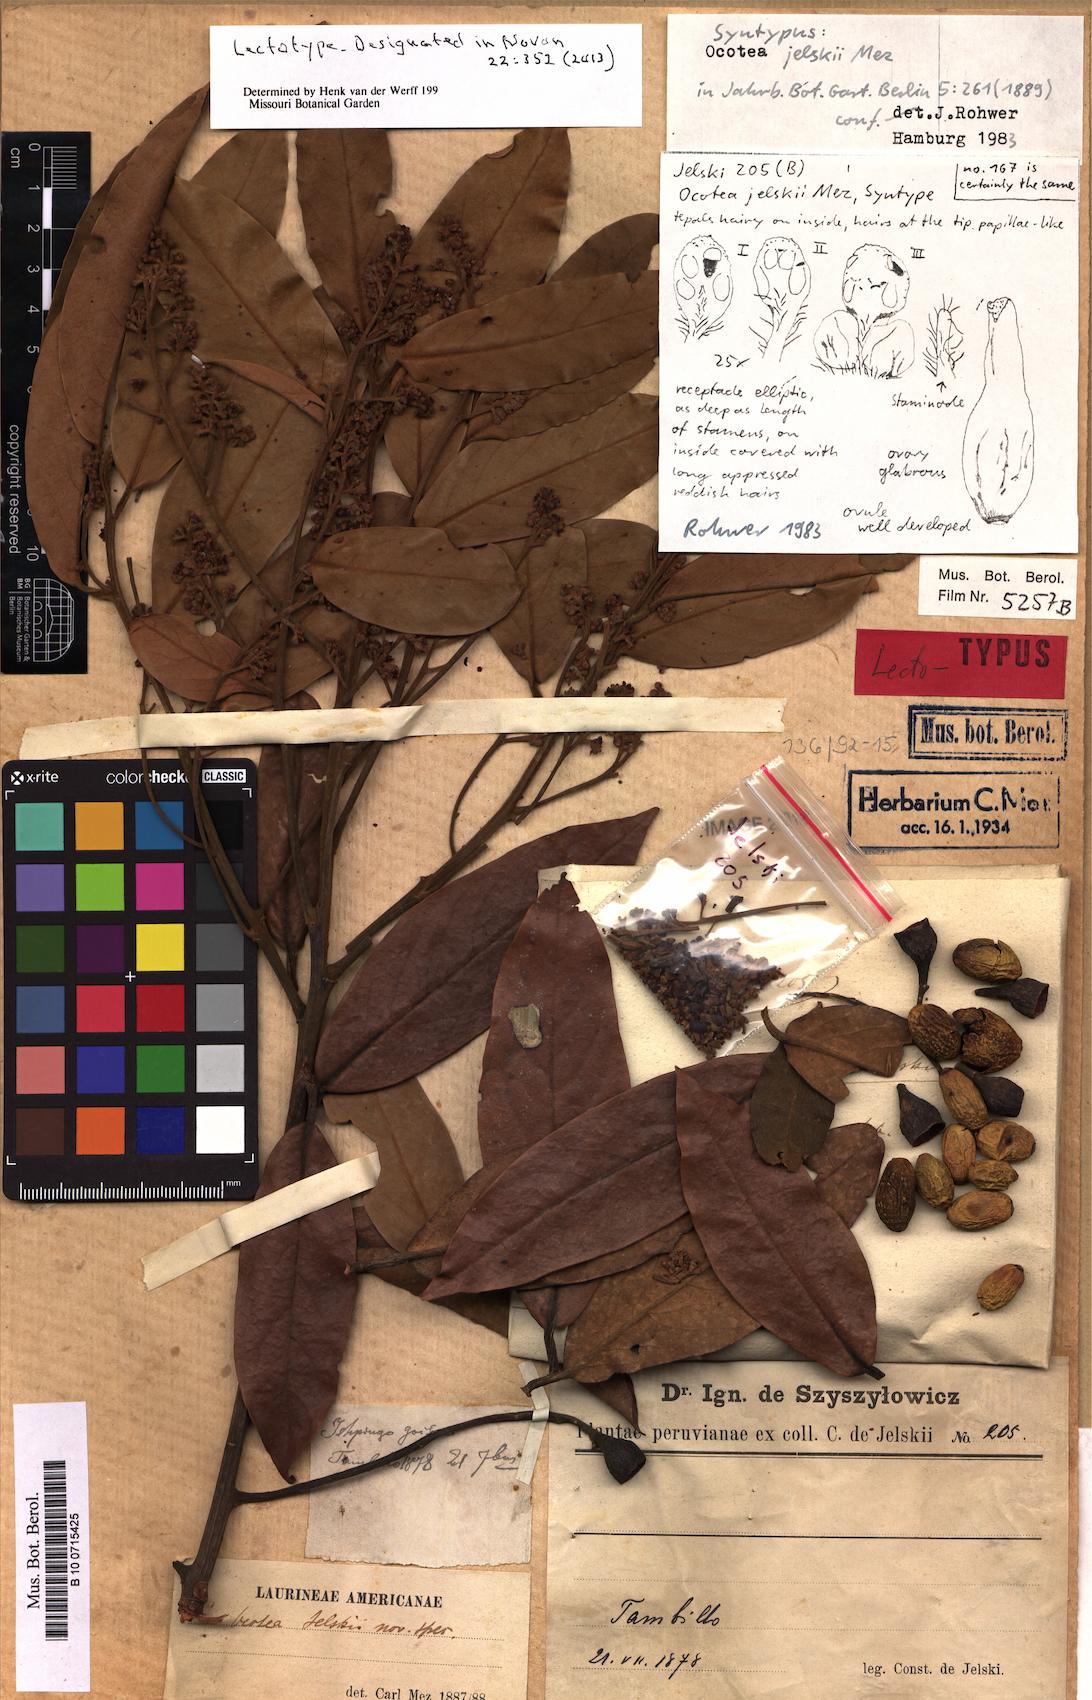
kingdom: Plantae
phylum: Tracheophyta
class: Magnoliopsida
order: Laurales
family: Lauraceae
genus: Ocotea
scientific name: Ocotea jelskii
